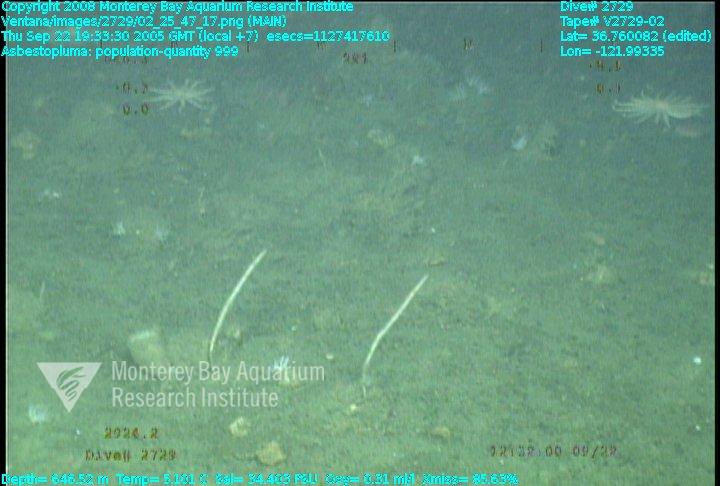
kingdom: Animalia
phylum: Porifera
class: Demospongiae
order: Poecilosclerida
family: Cladorhizidae
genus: Asbestopluma
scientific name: Asbestopluma
